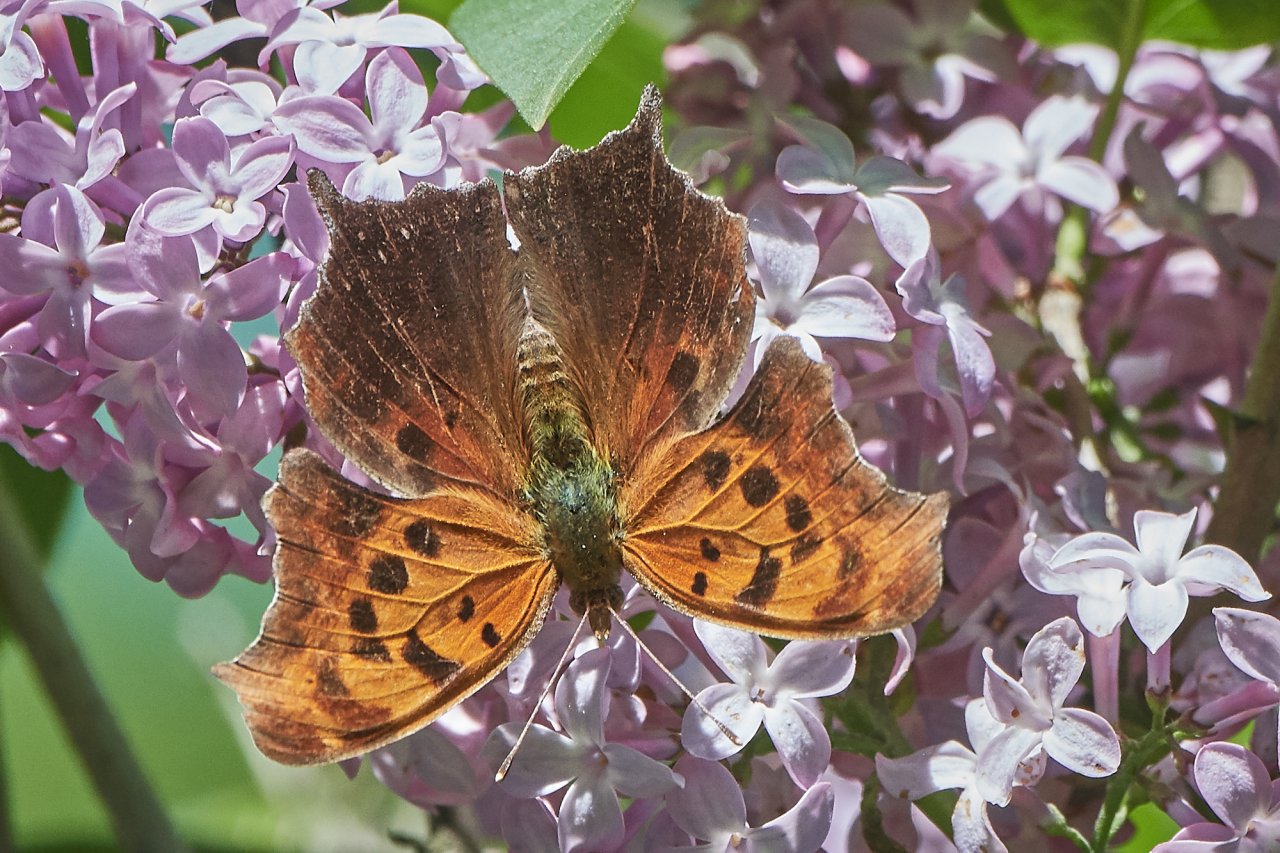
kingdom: Animalia
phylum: Arthropoda
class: Insecta
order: Lepidoptera
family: Nymphalidae
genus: Polygonia
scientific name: Polygonia interrogationis
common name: Question Mark
